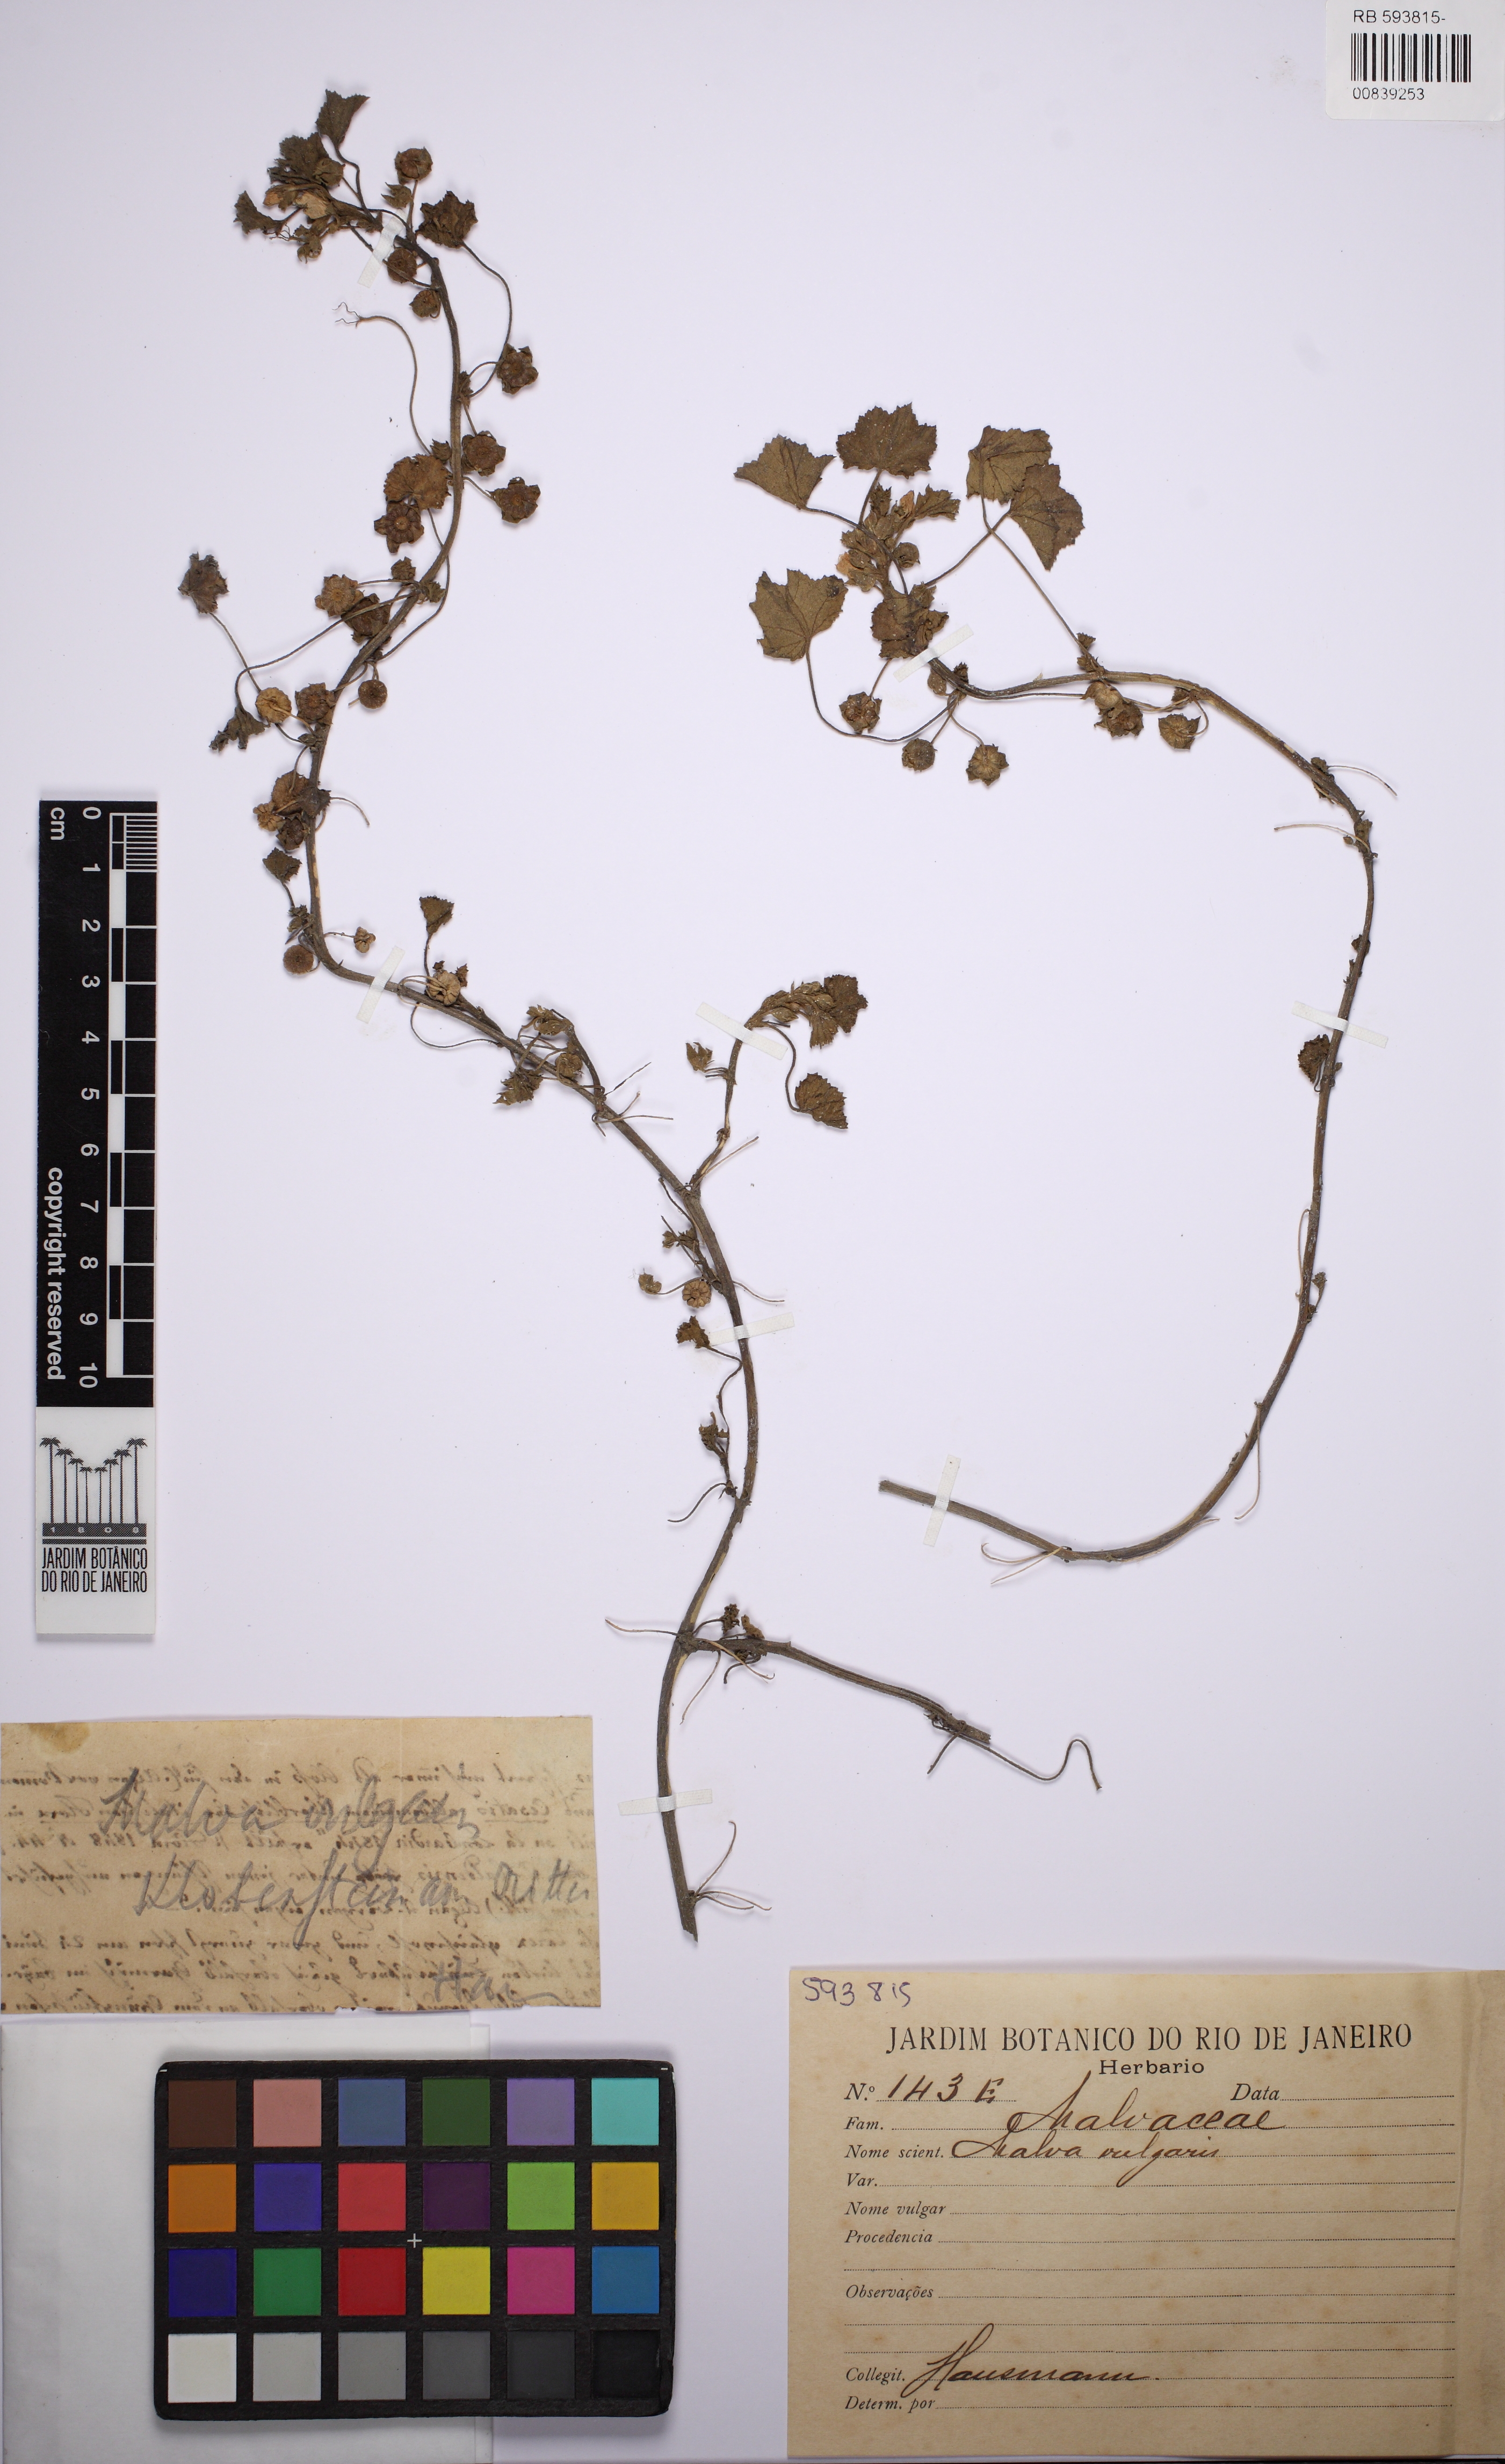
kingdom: Plantae
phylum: Tracheophyta
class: Magnoliopsida
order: Malvales
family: Malvaceae
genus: Malva
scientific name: Malva
